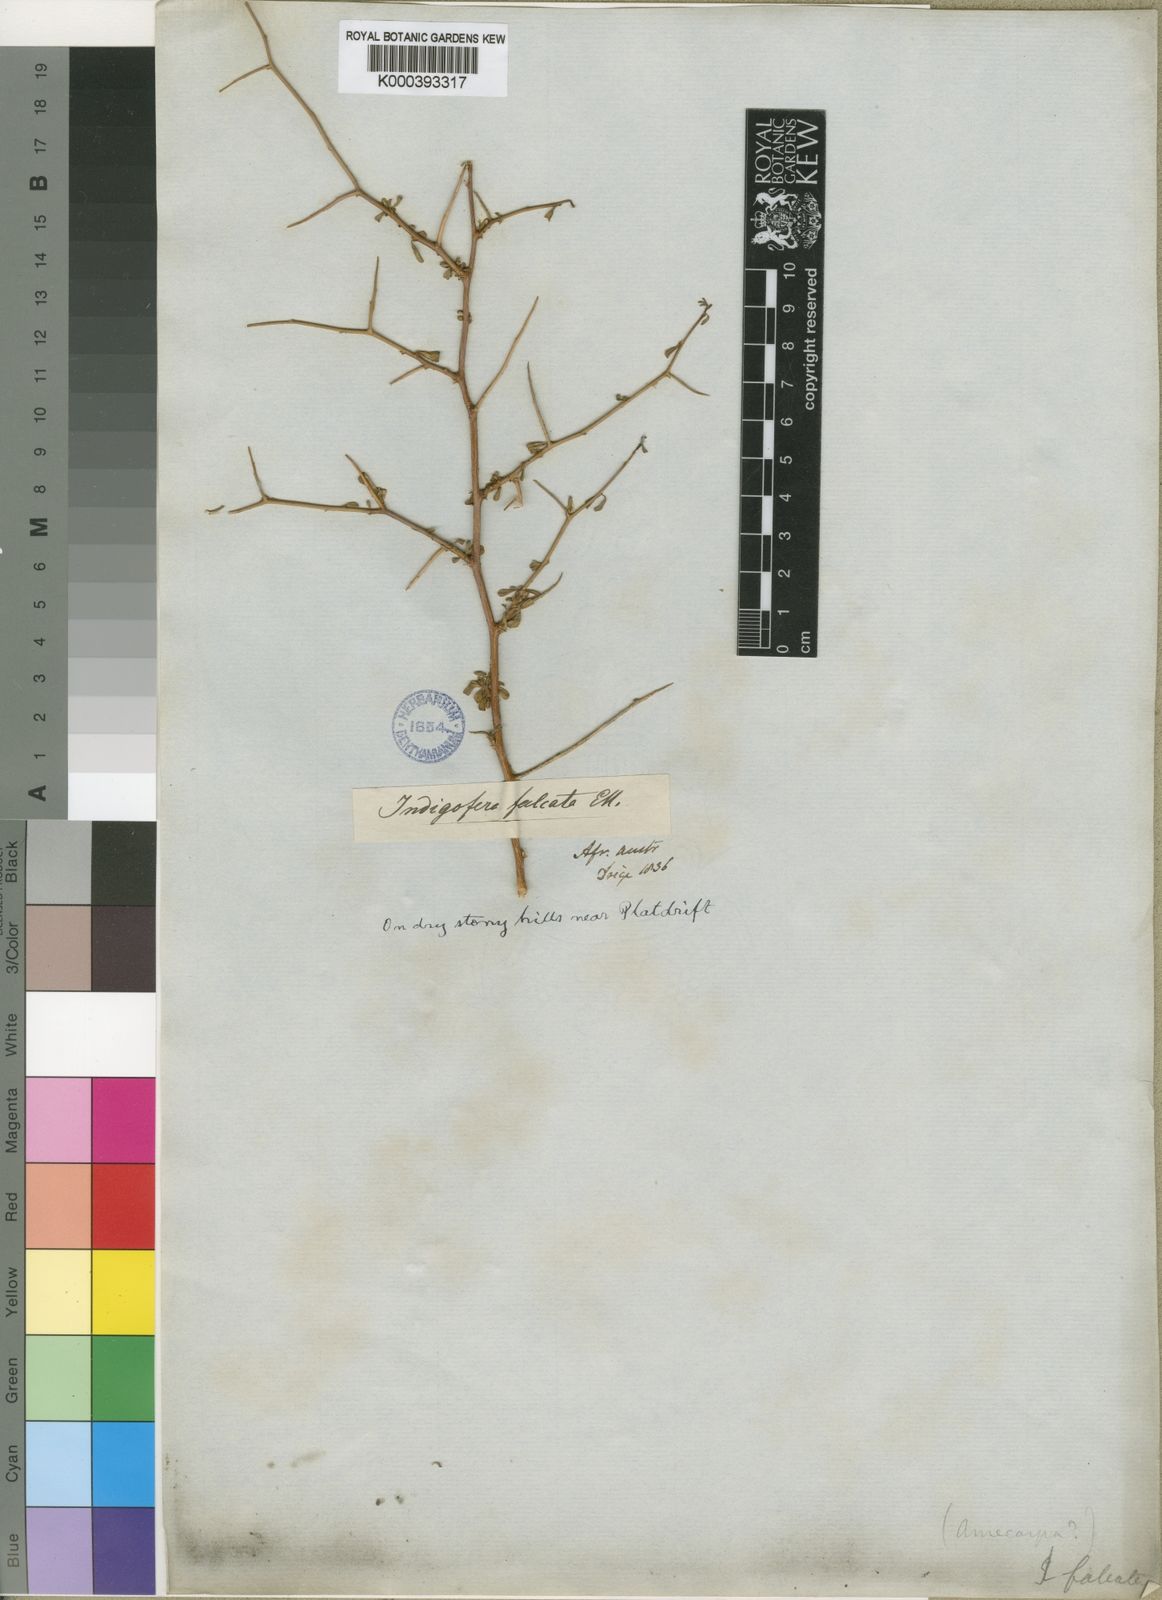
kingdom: Plantae
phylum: Tracheophyta
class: Magnoliopsida
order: Fabales
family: Fabaceae
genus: Indigofera
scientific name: Indigofera sessilifolia
